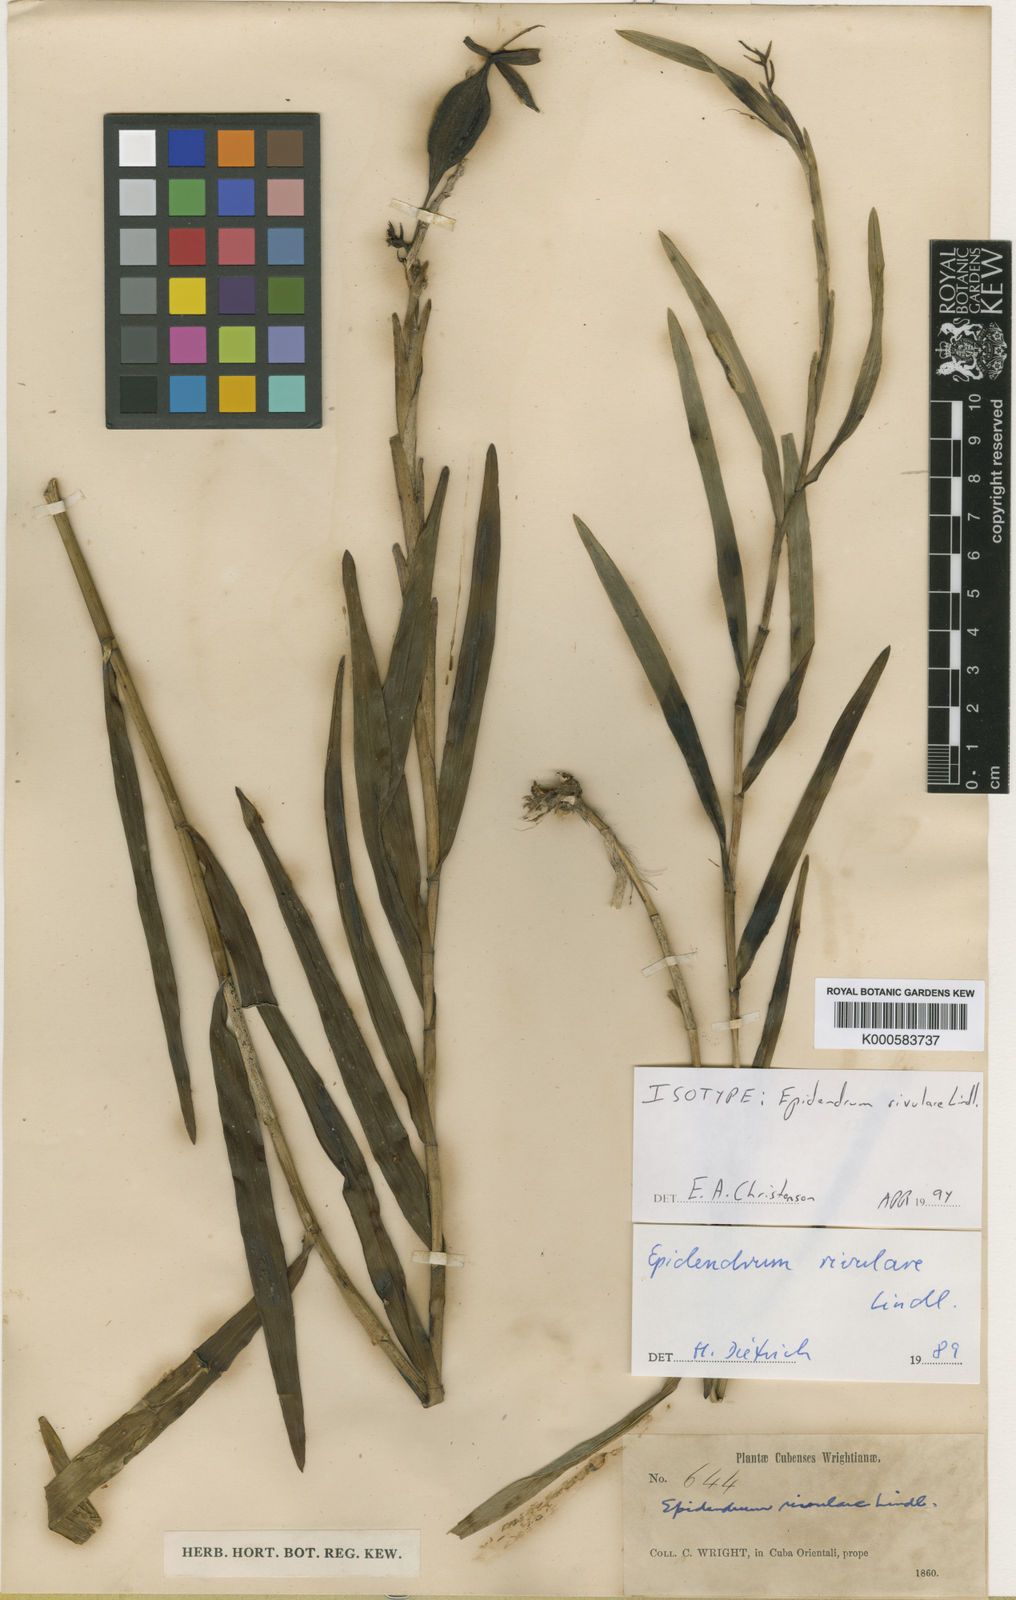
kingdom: Plantae
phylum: Tracheophyta
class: Liliopsida
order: Asparagales
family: Orchidaceae
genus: Epidendrum
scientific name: Epidendrum rivulare
